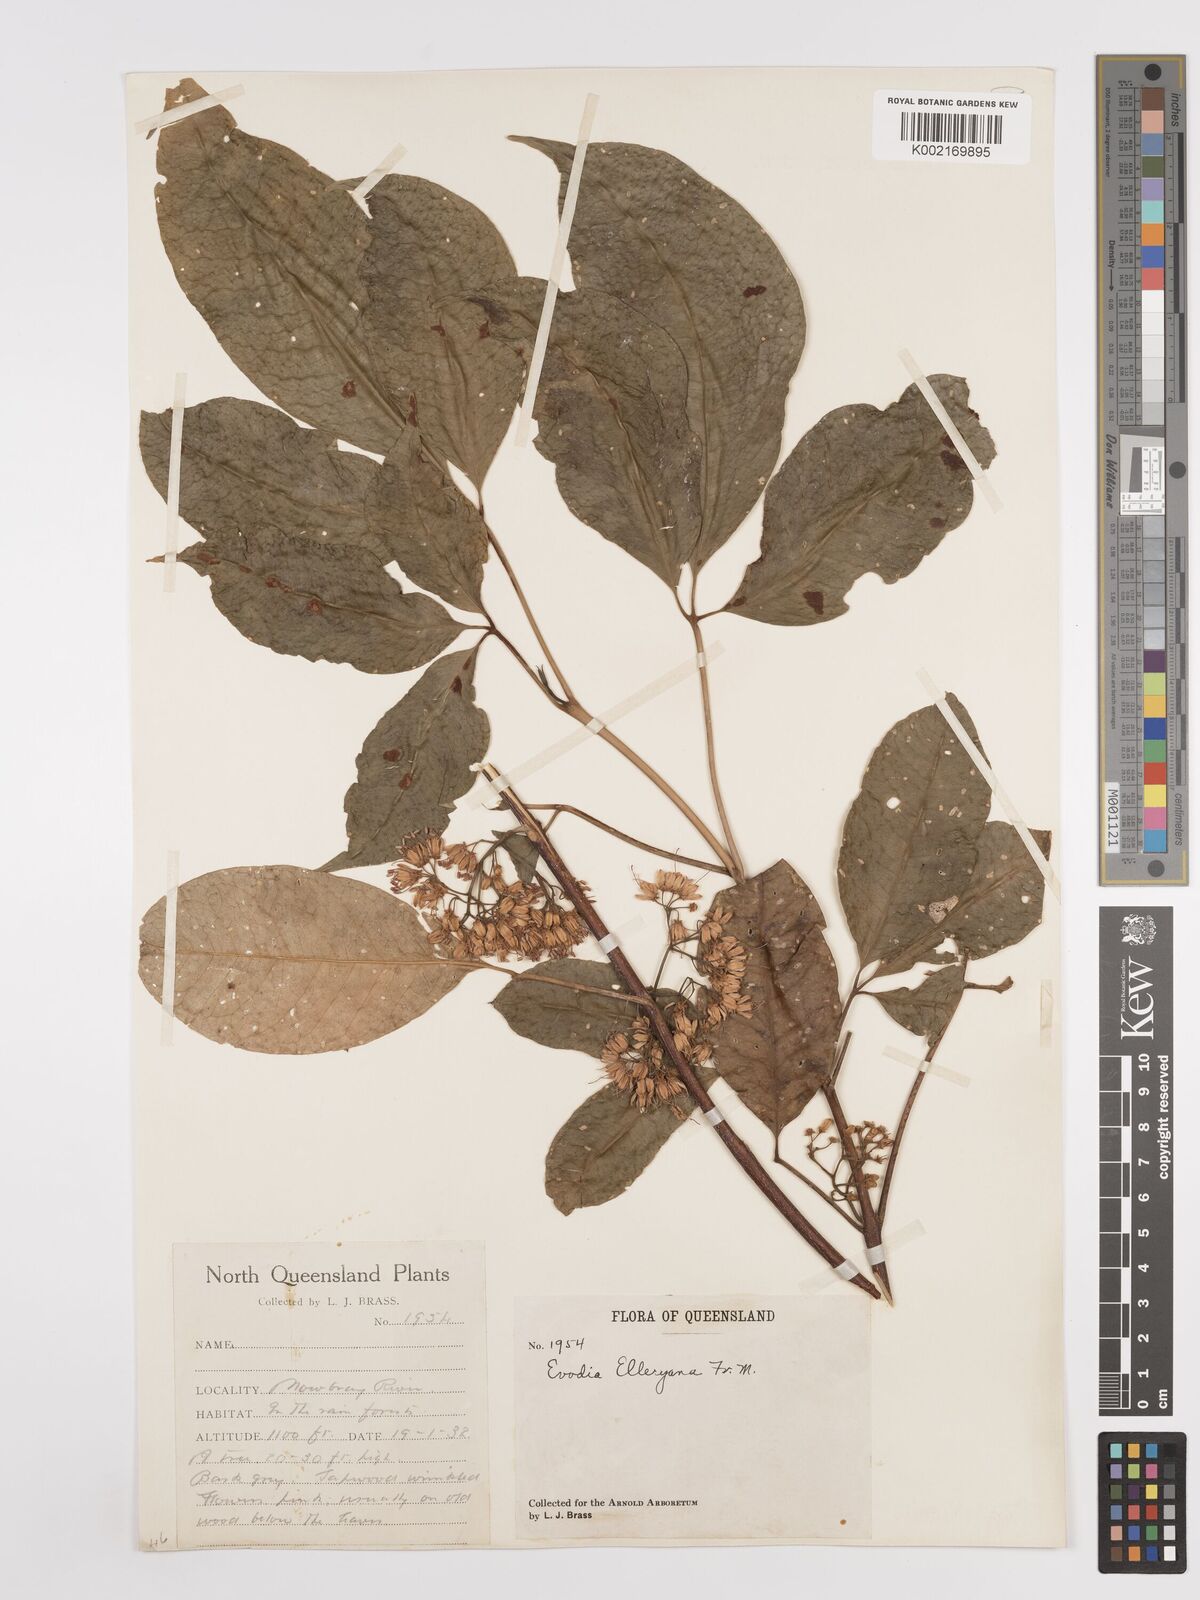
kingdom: Plantae
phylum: Tracheophyta
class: Magnoliopsida
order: Sapindales
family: Rutaceae
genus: Melicope
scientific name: Melicope accedens
